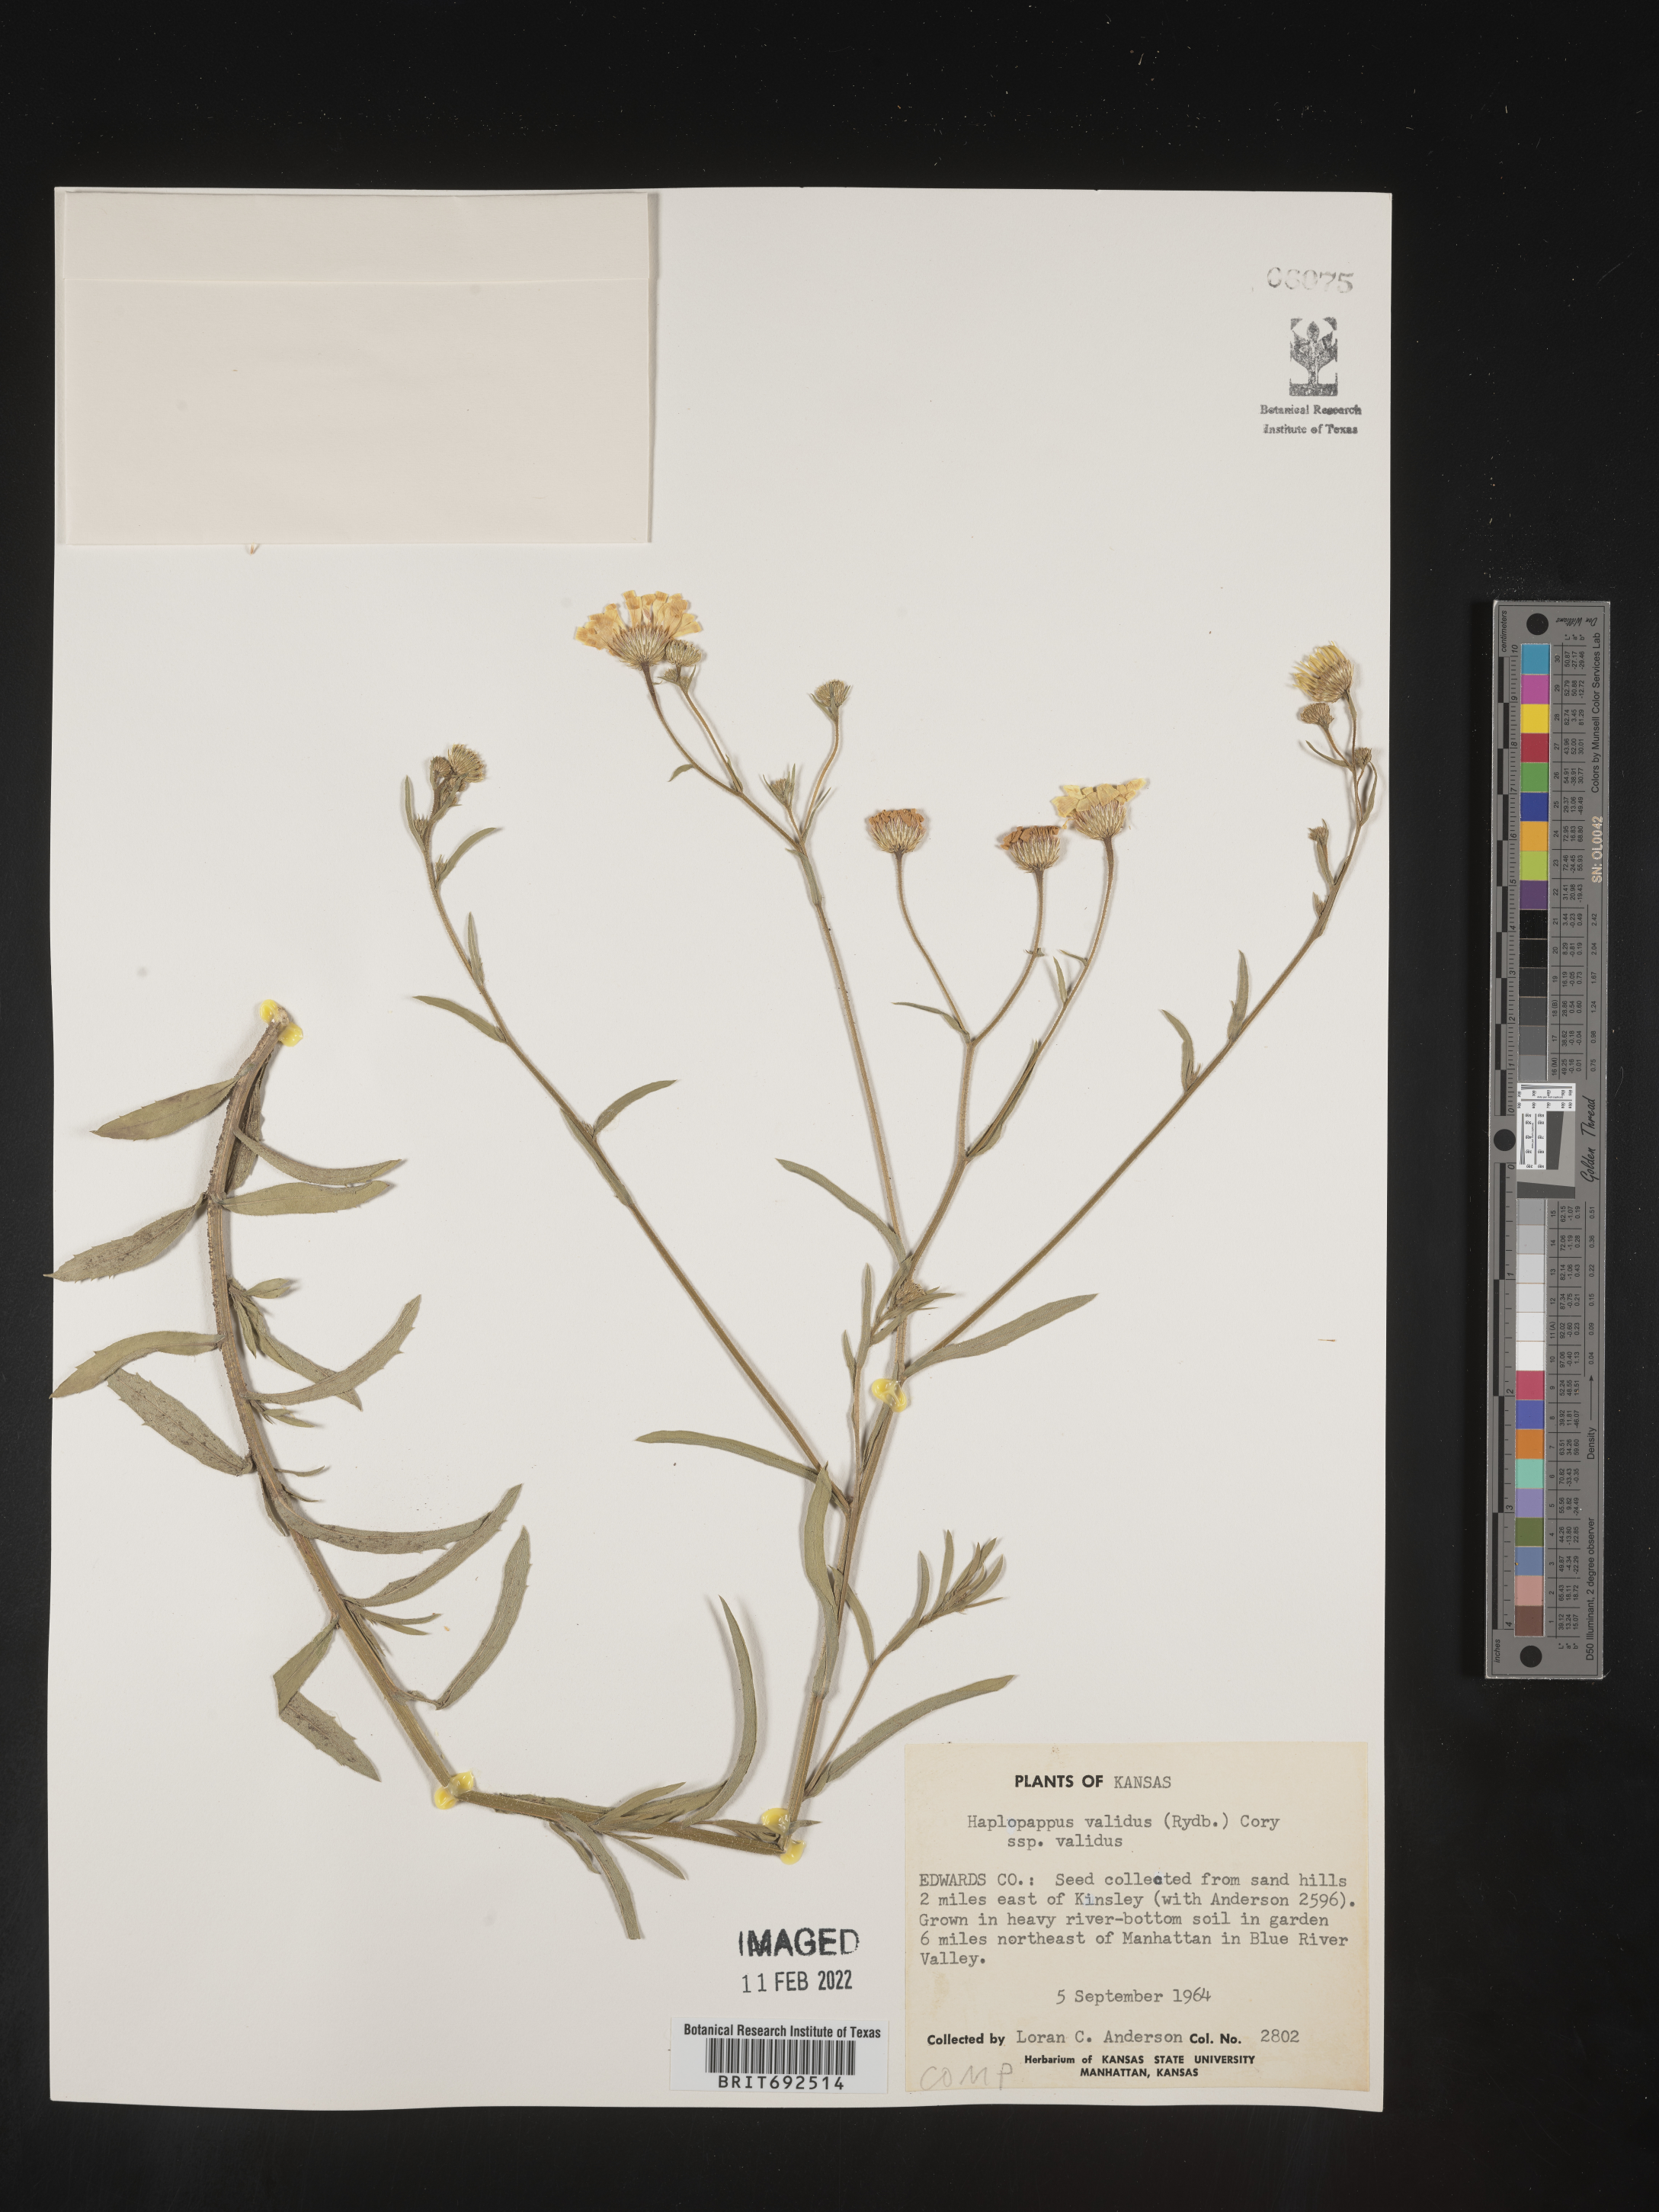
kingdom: Plantae
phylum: Tracheophyta
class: Magnoliopsida
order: Asterales
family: Asteraceae
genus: Croptilon
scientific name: Croptilon hookerianum
